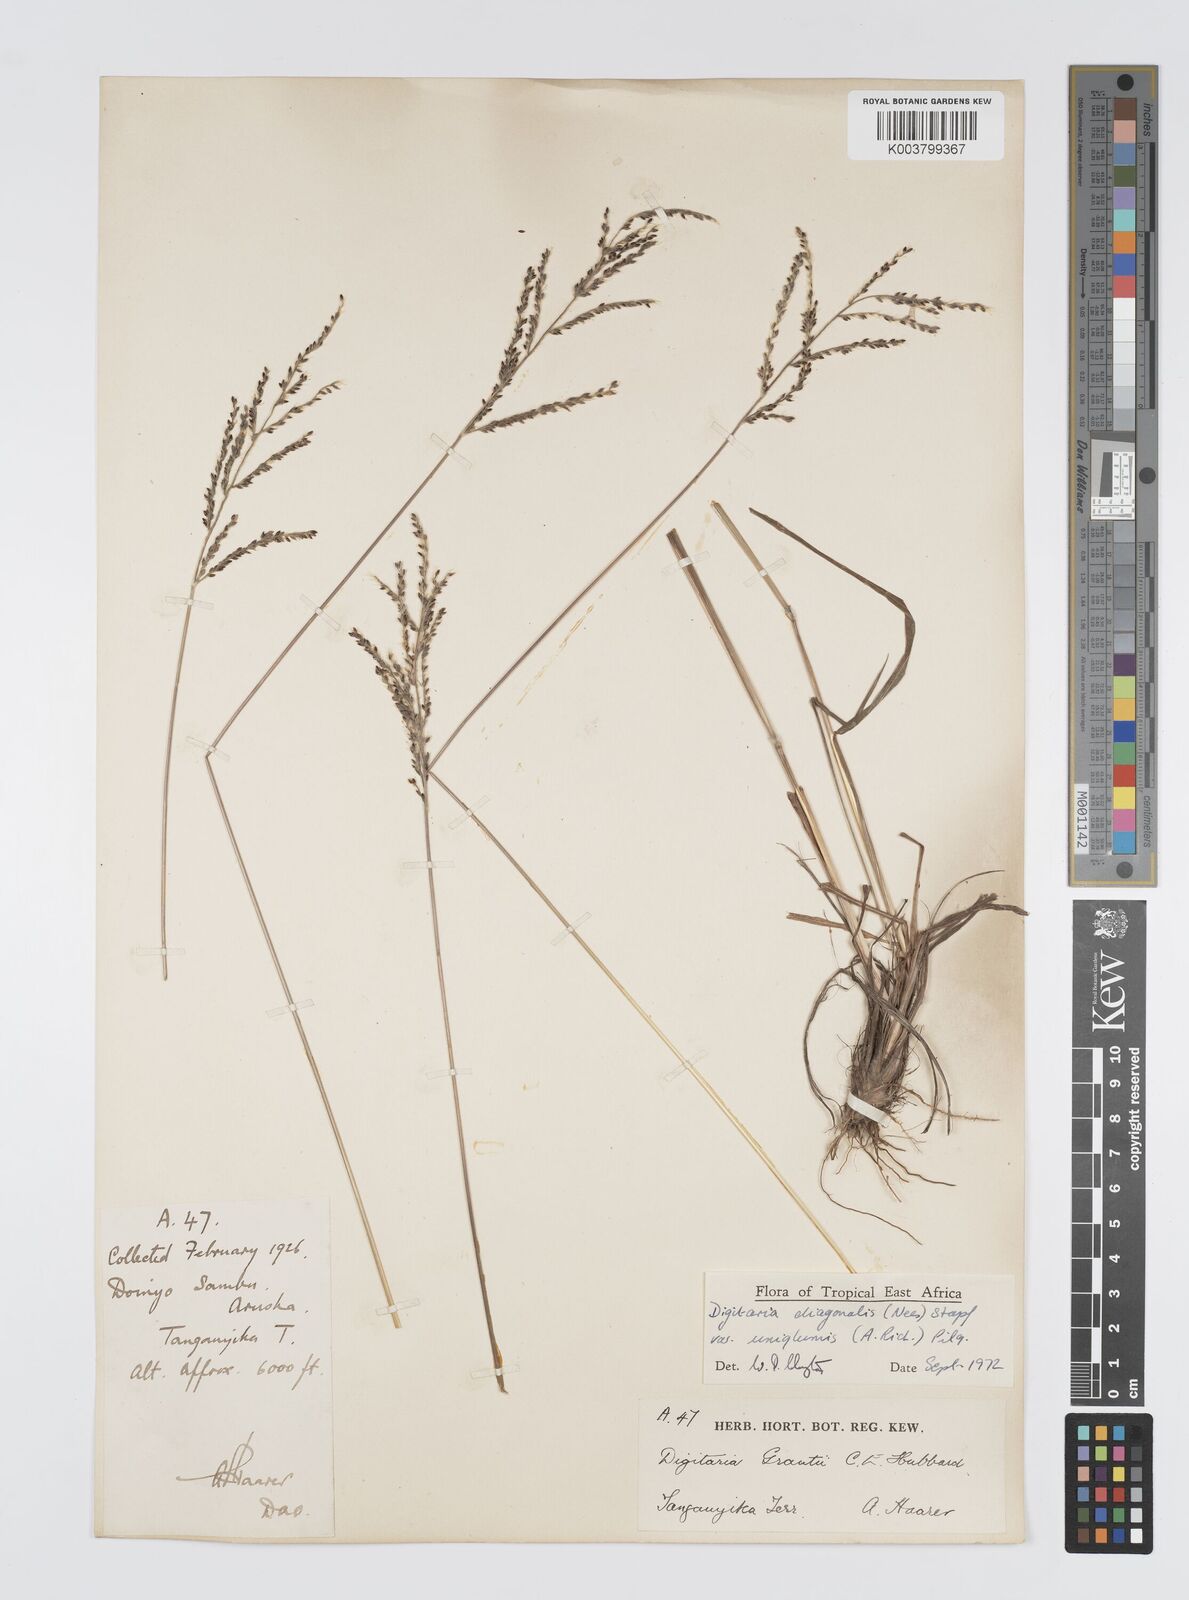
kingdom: Plantae
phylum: Tracheophyta
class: Liliopsida
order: Poales
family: Poaceae
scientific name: Poaceae
